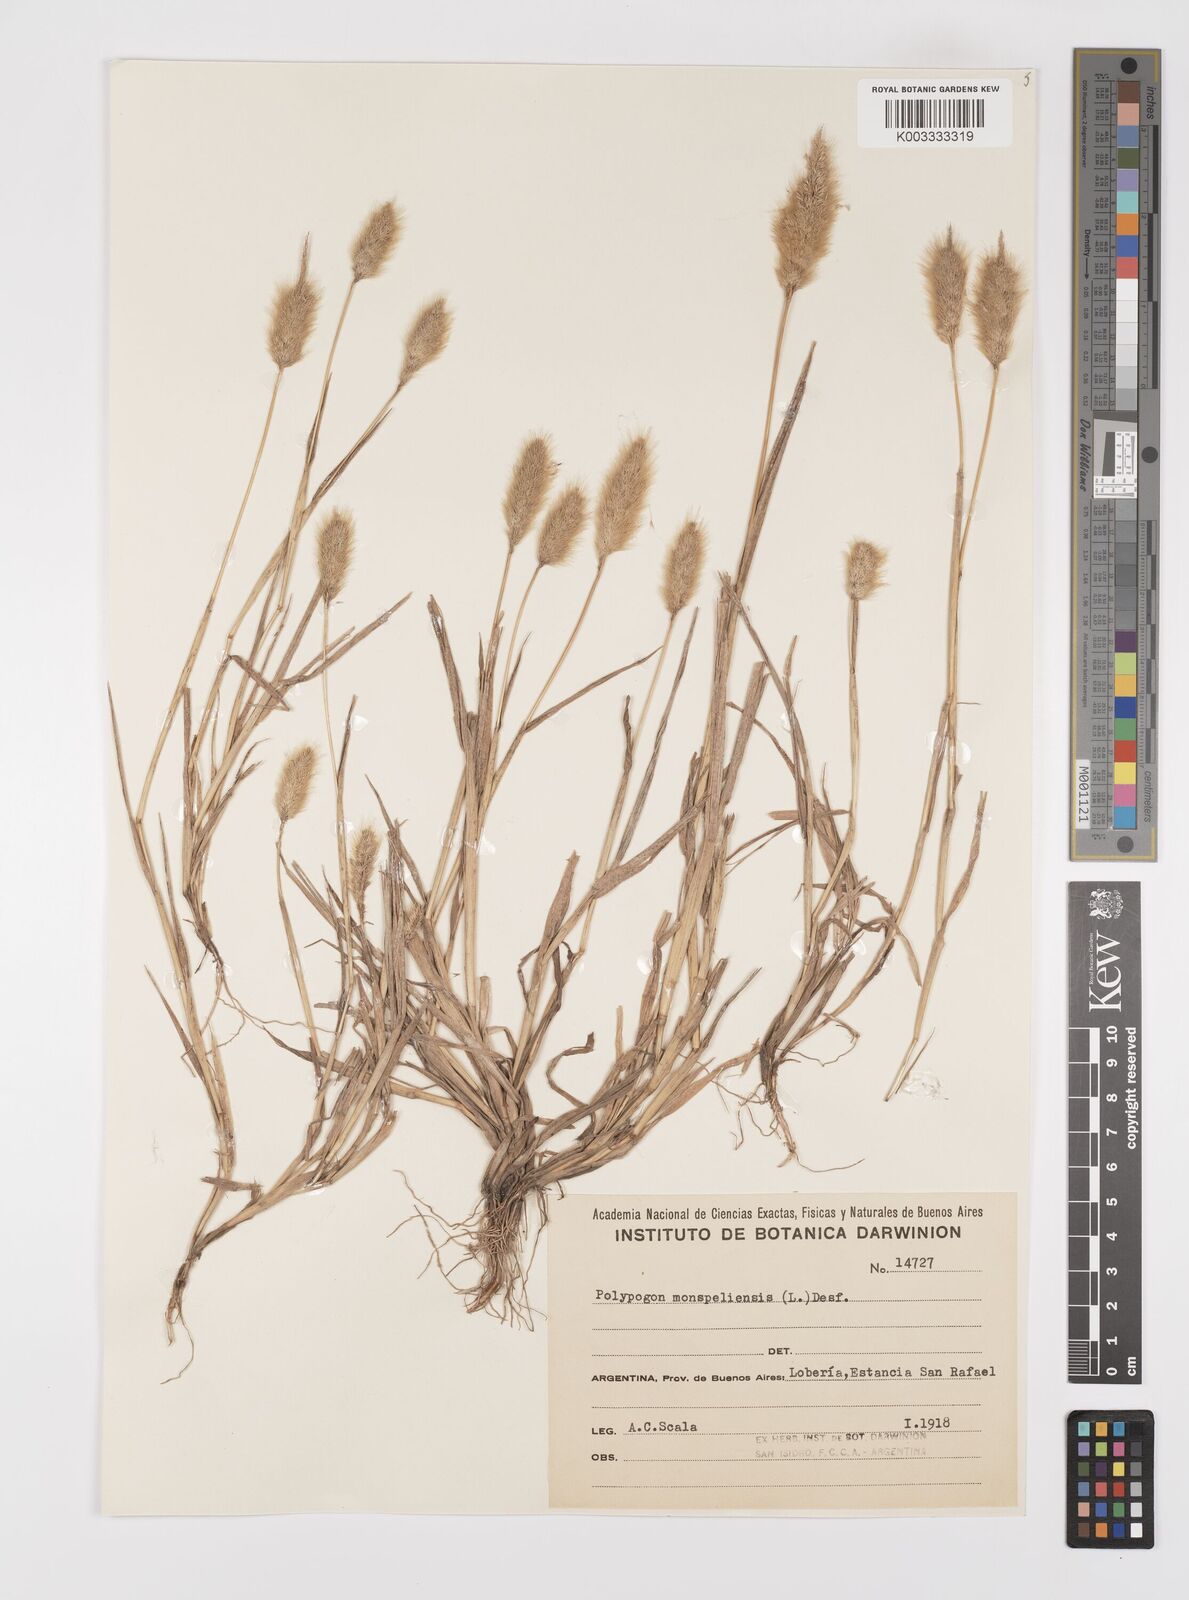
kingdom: Plantae
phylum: Tracheophyta
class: Liliopsida
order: Poales
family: Poaceae
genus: Polypogon
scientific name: Polypogon monspeliensis
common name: Annual rabbitsfoot grass
